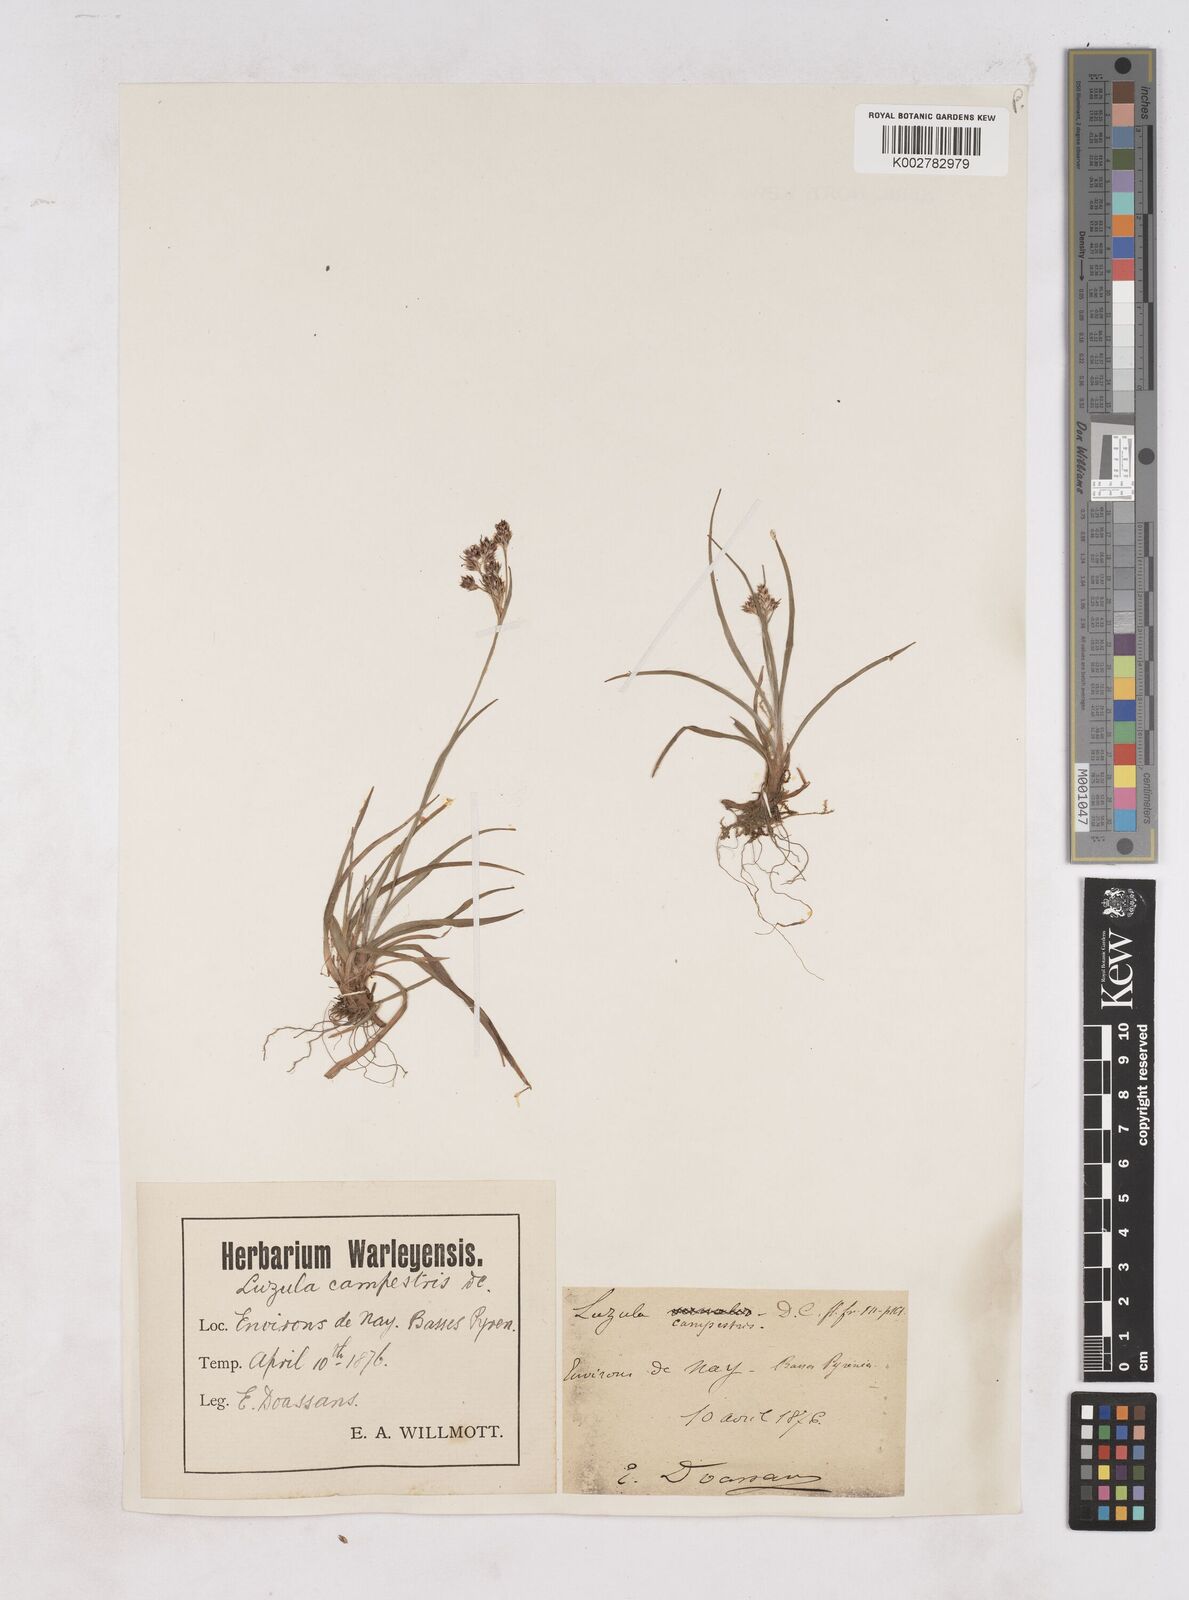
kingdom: Plantae
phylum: Tracheophyta
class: Liliopsida
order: Poales
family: Juncaceae
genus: Luzula
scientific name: Luzula campestris
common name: Field wood-rush
